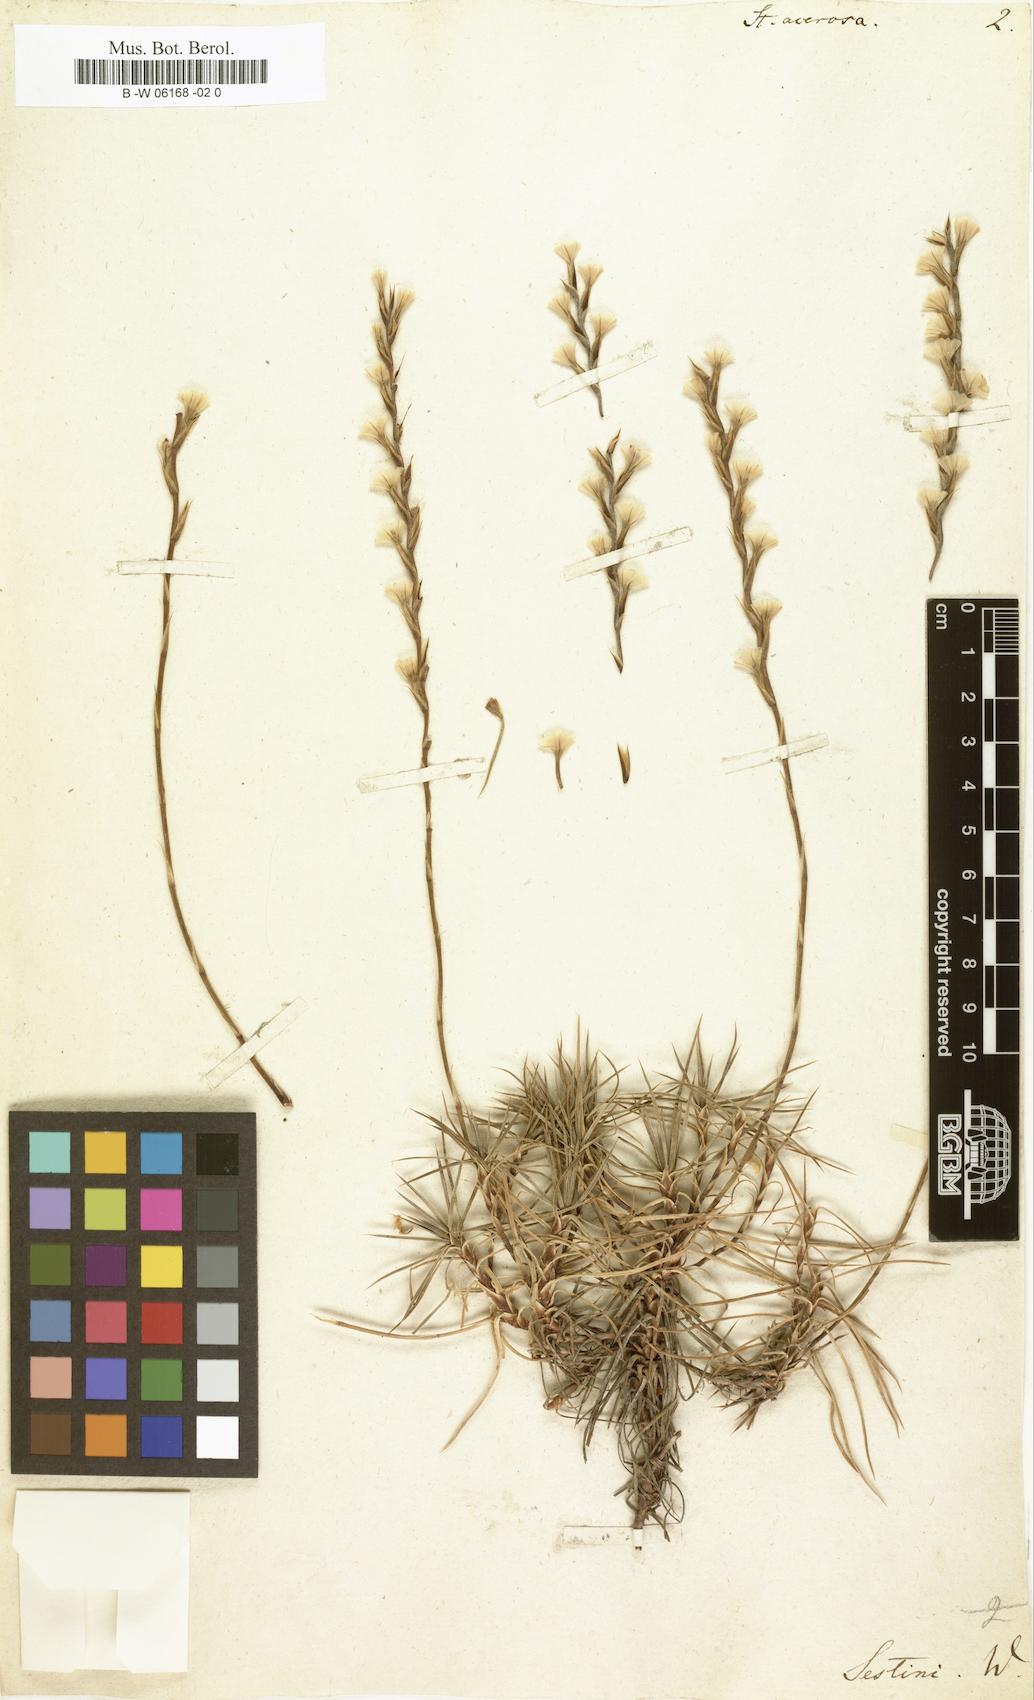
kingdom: Plantae
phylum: Tracheophyta
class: Magnoliopsida
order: Caryophyllales
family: Plumbaginaceae
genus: Acantholimon
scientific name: Acantholimon
